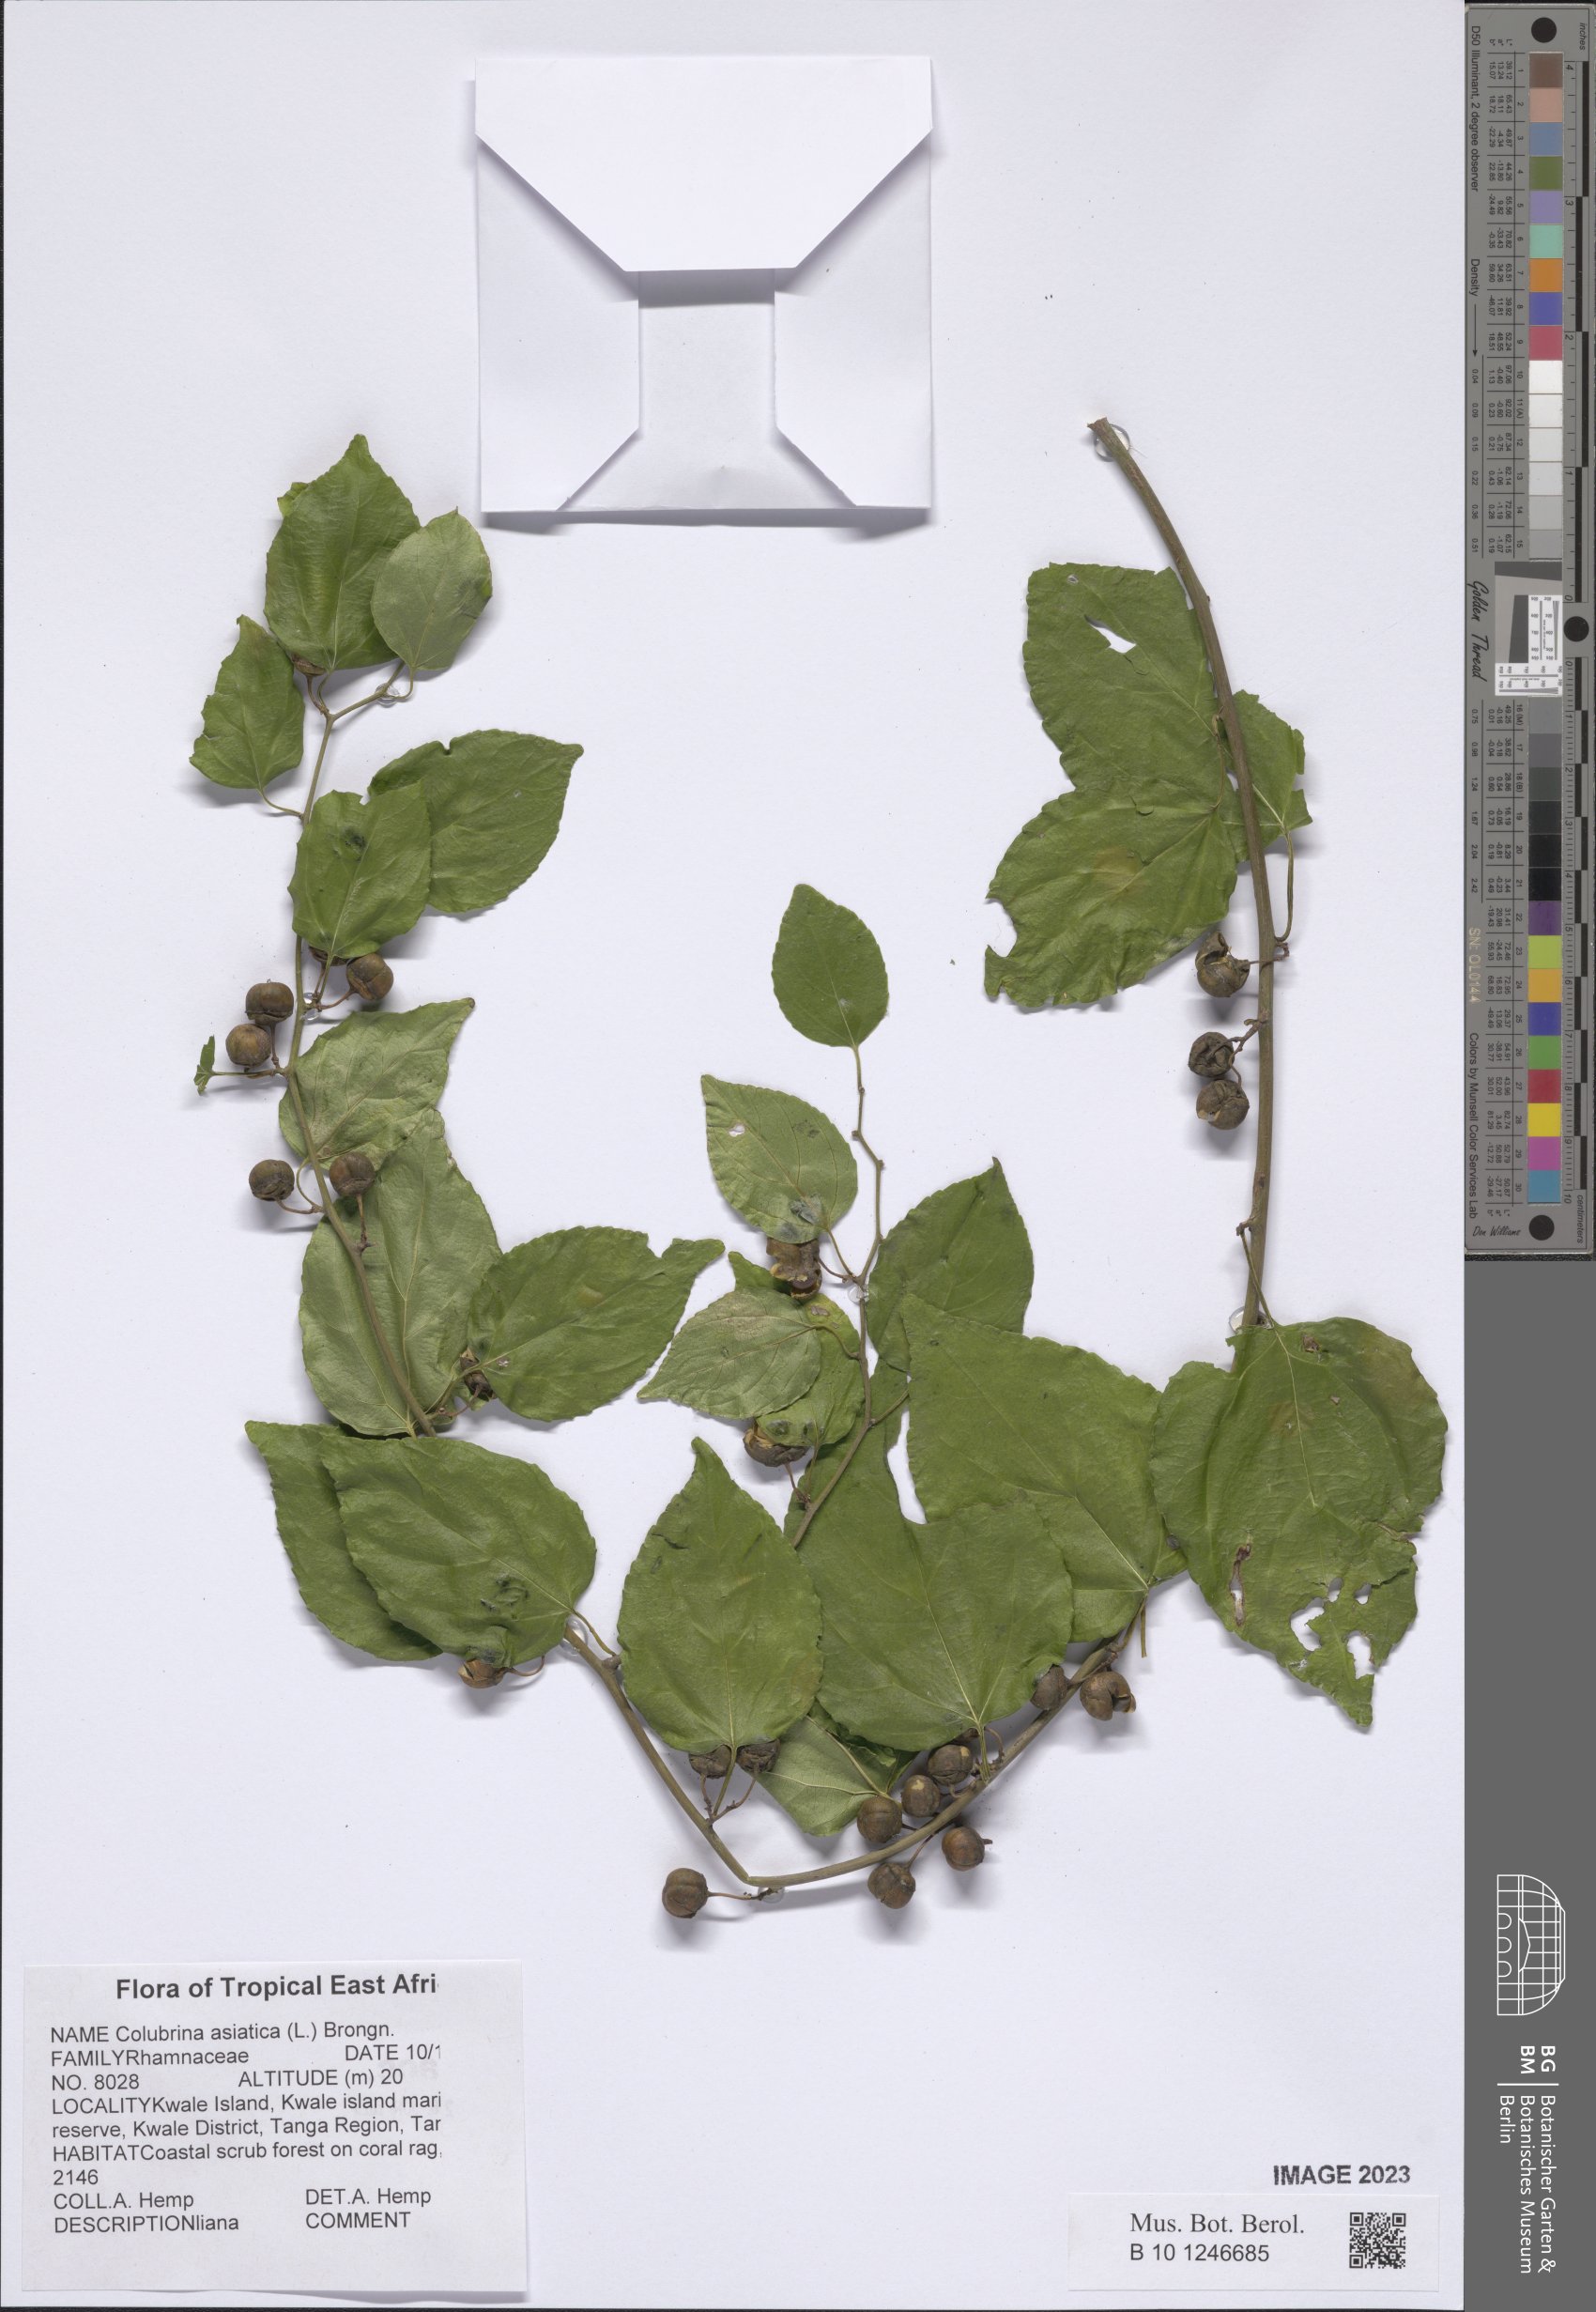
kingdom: Plantae
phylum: Tracheophyta
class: Magnoliopsida
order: Rosales
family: Rhamnaceae
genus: Colubrina
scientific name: Colubrina asiatica
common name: Asian nakedwood
